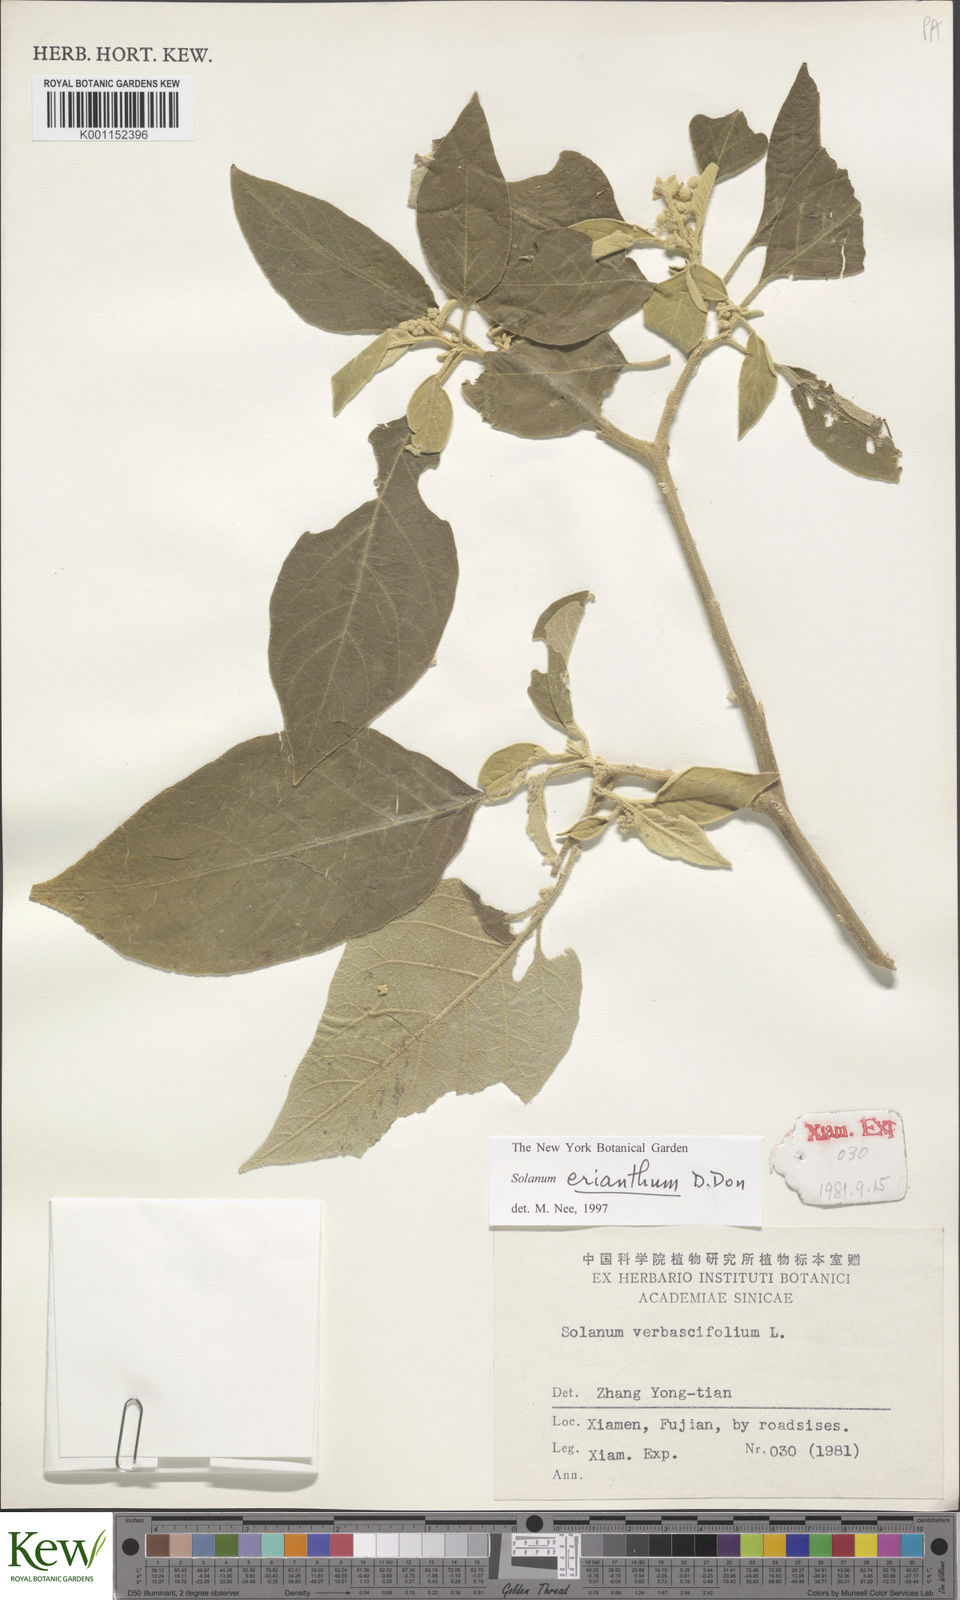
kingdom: Plantae
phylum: Tracheophyta
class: Magnoliopsida
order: Solanales
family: Solanaceae
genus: Solanum
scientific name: Solanum erianthum
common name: Tobacco-tree
